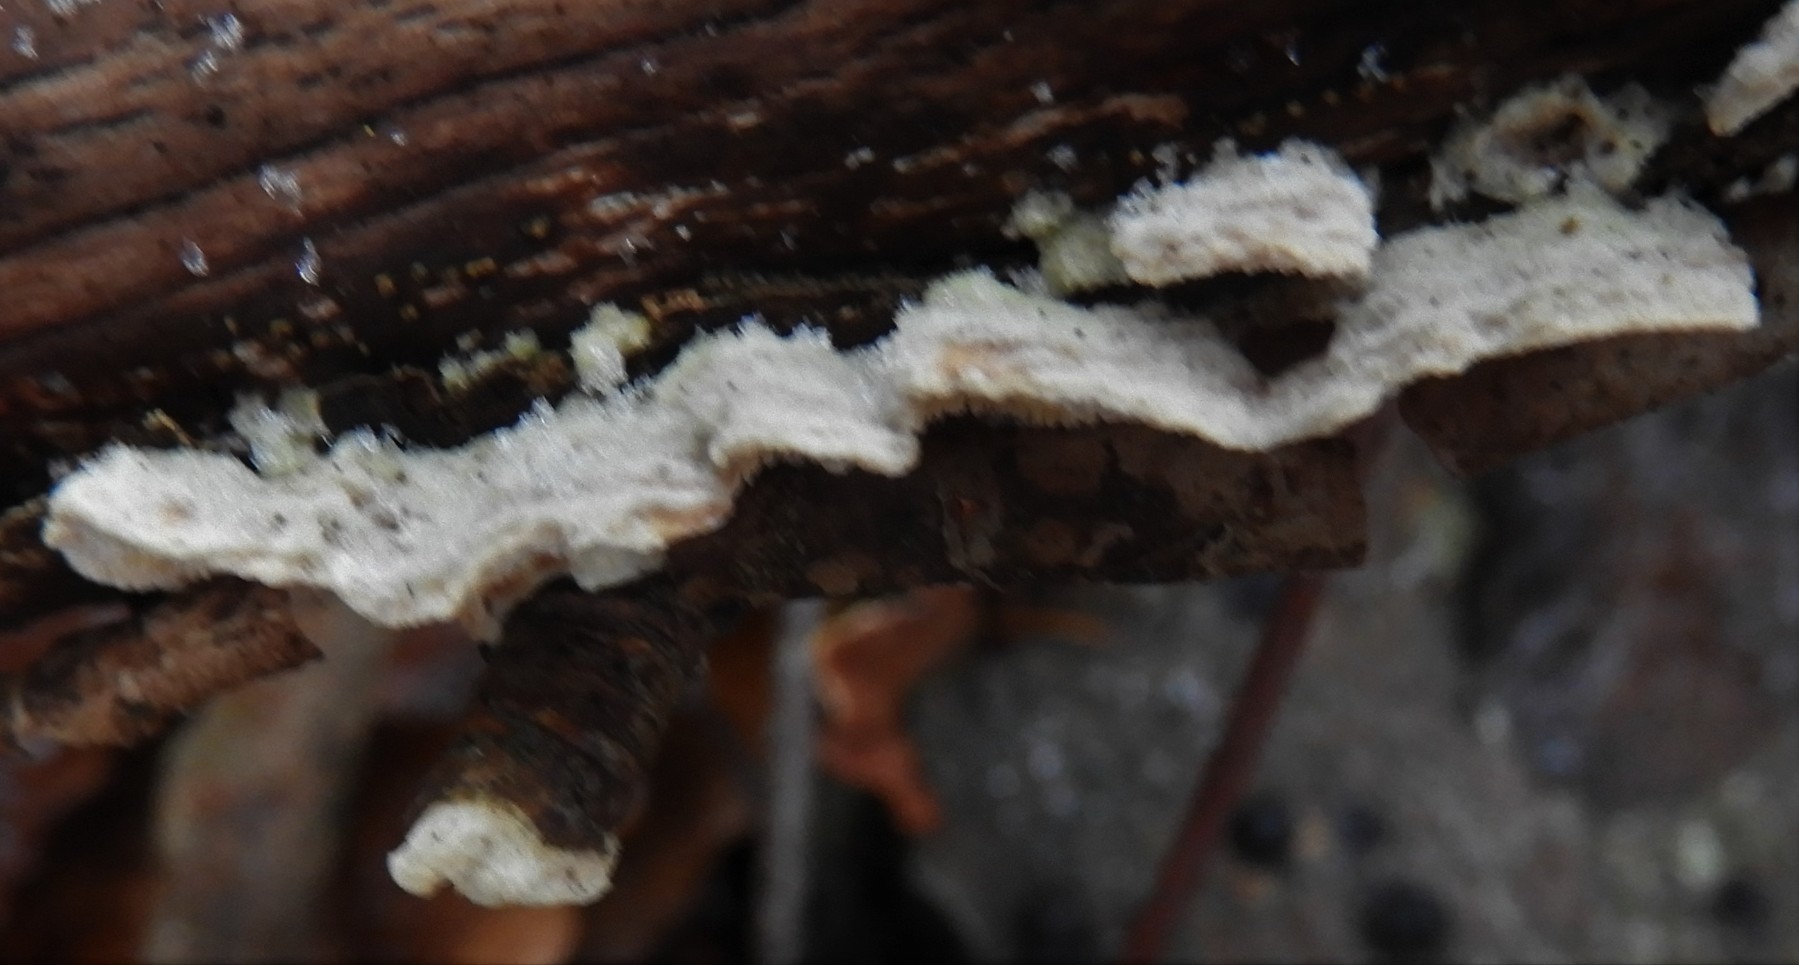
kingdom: Fungi
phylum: Basidiomycota
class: Agaricomycetes
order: Polyporales
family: Steccherinaceae
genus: Steccherinum
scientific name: Steccherinum
